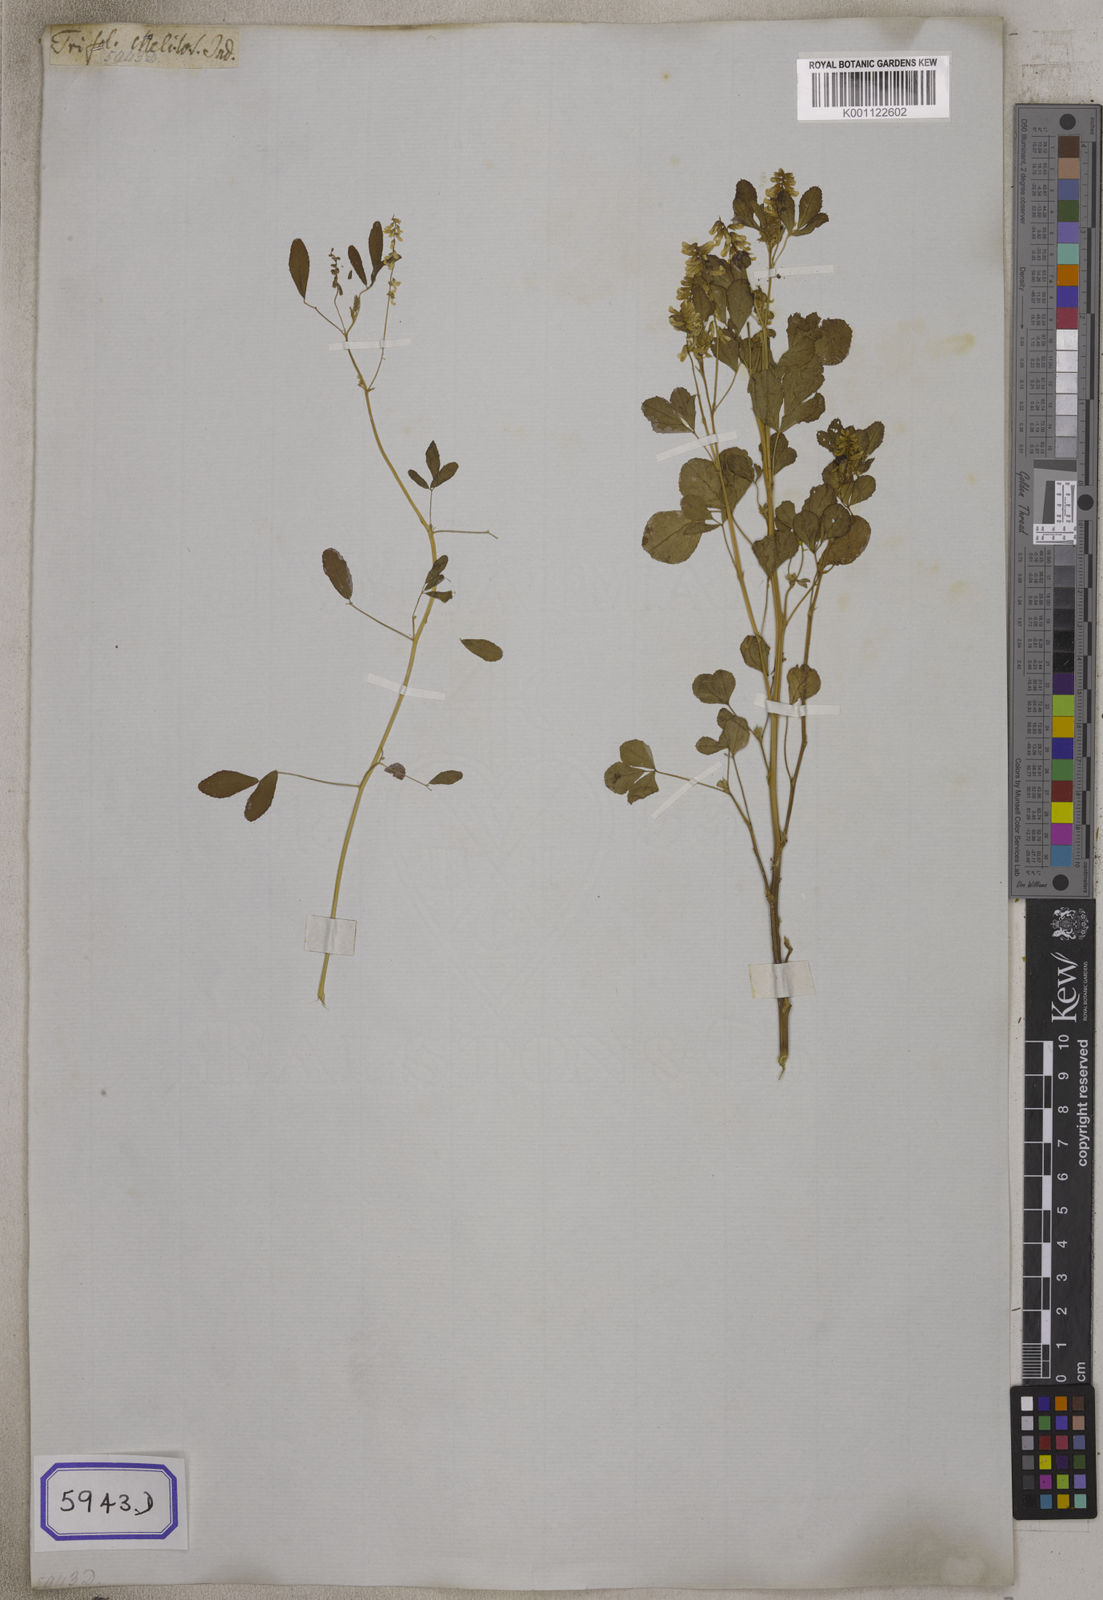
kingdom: Plantae
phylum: Tracheophyta
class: Magnoliopsida
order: Fabales
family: Fabaceae
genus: Melilotus
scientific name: Melilotus indicus
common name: Small melilot
